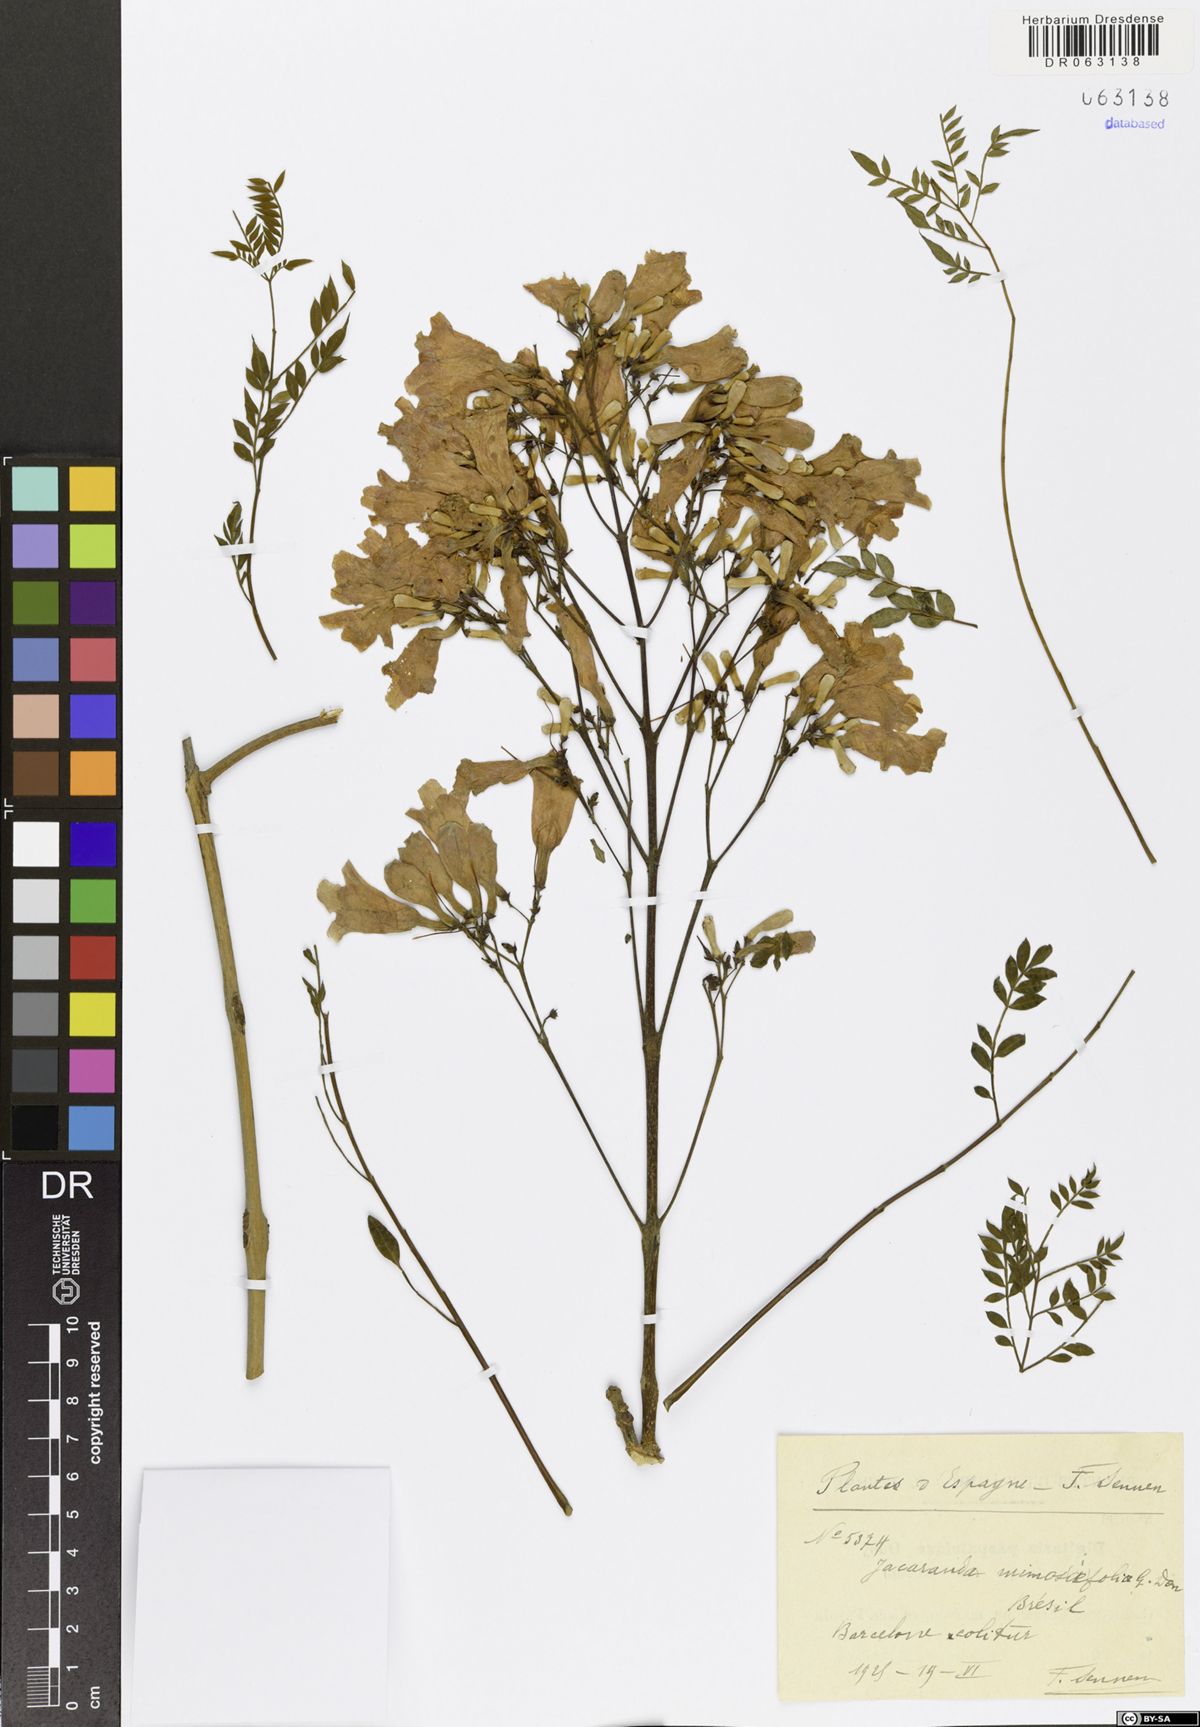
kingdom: Plantae
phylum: Tracheophyta
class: Magnoliopsida
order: Lamiales
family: Bignoniaceae
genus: Jacaranda
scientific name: Jacaranda mimosifolia
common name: Black poui
